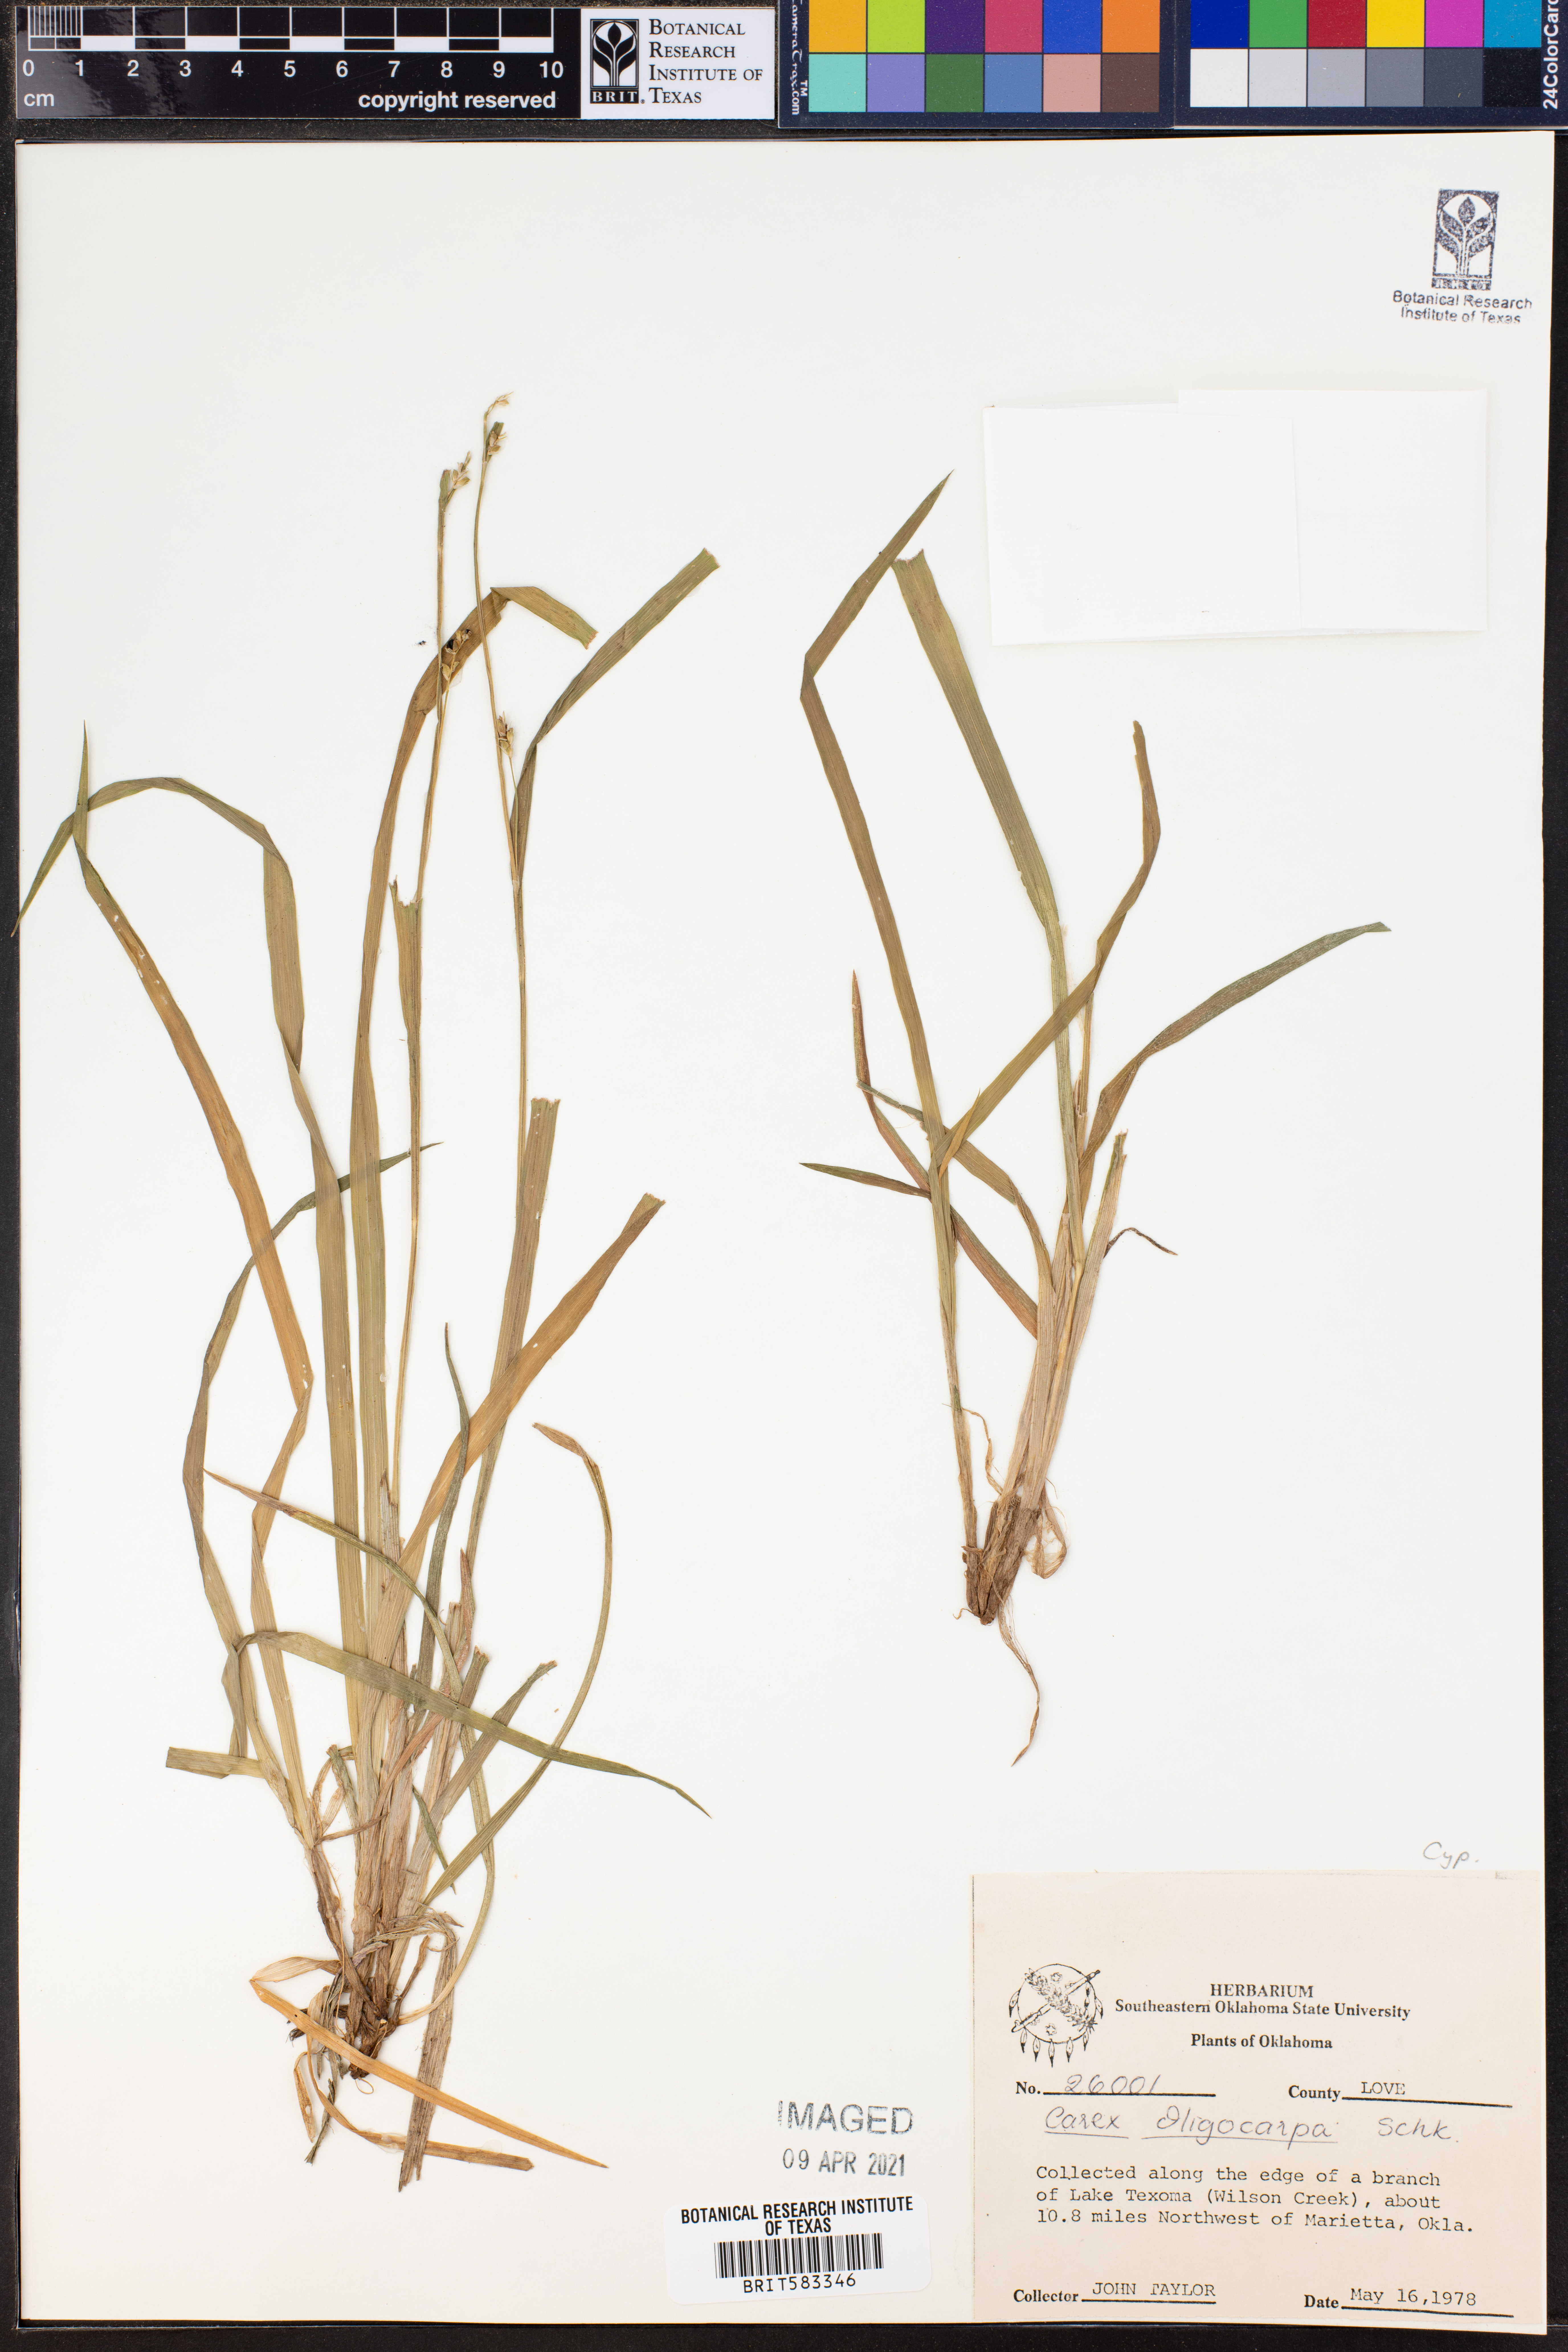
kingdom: Plantae
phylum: Tracheophyta
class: Liliopsida
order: Poales
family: Cyperaceae
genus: Carex
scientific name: Carex oligocarpa
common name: Eastern few-fruited sedge
